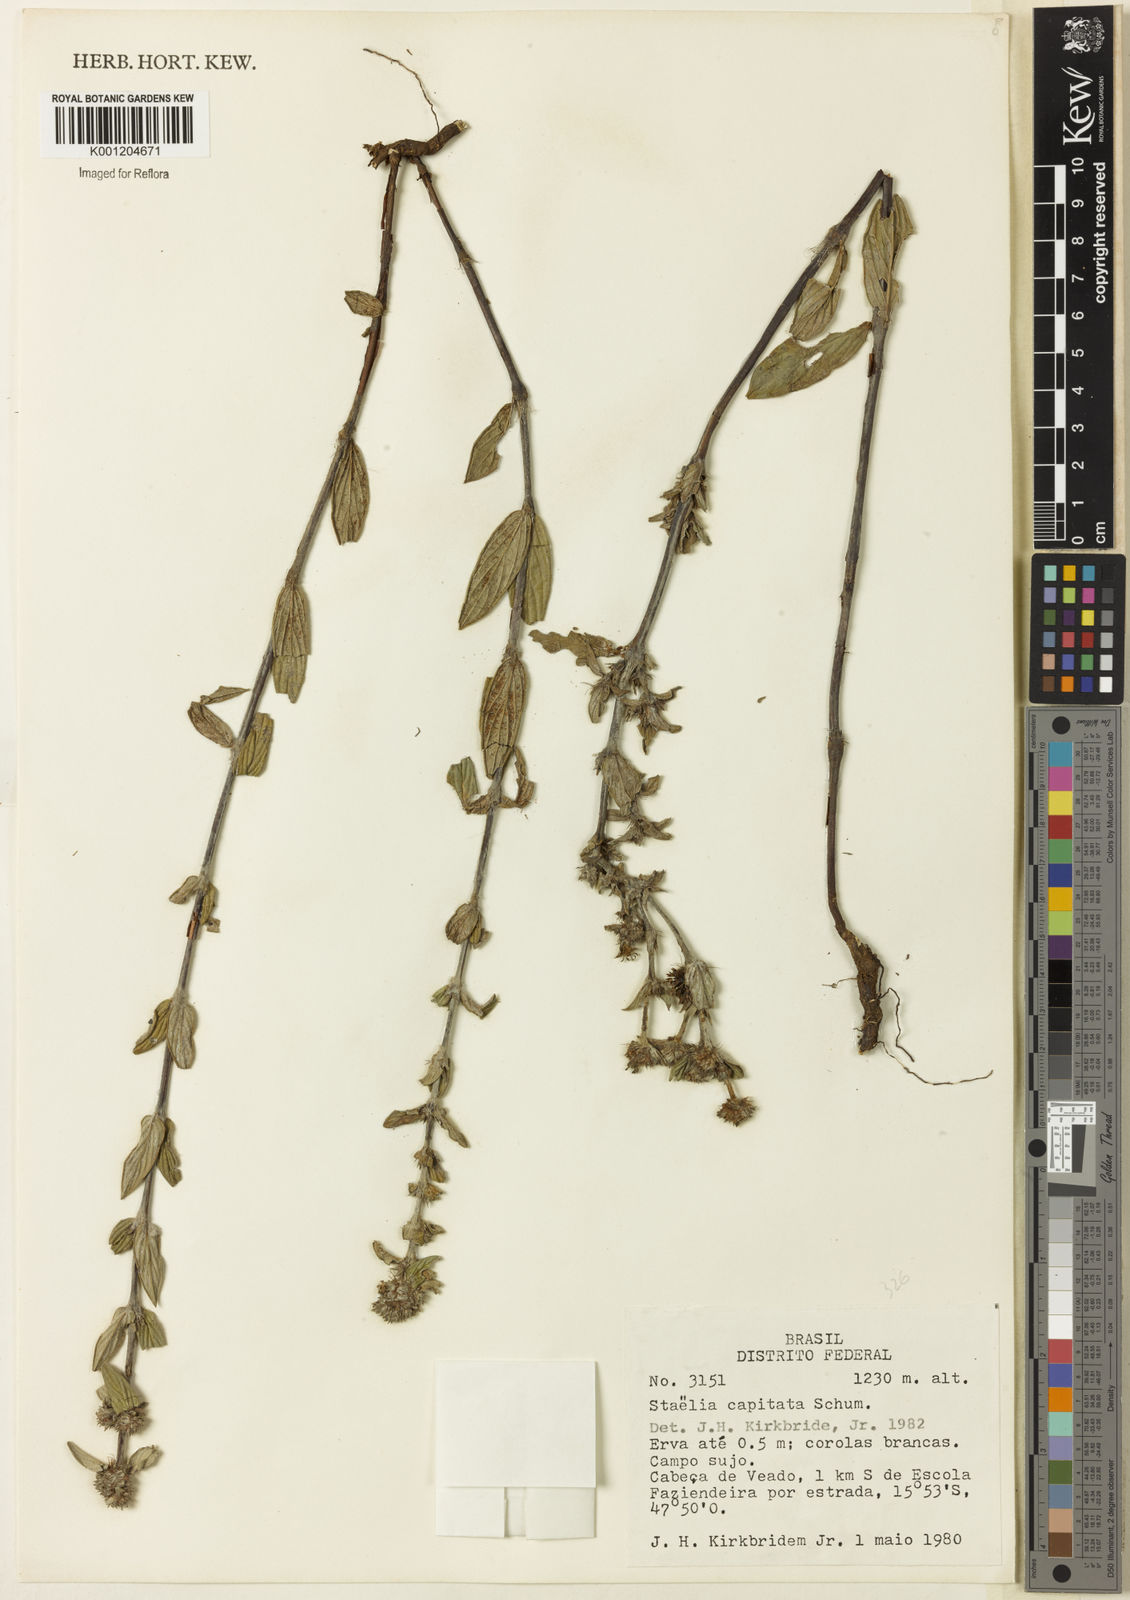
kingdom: Plantae
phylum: Tracheophyta
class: Magnoliopsida
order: Gentianales
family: Rubiaceae
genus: Planaltina
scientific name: Planaltina capitata
